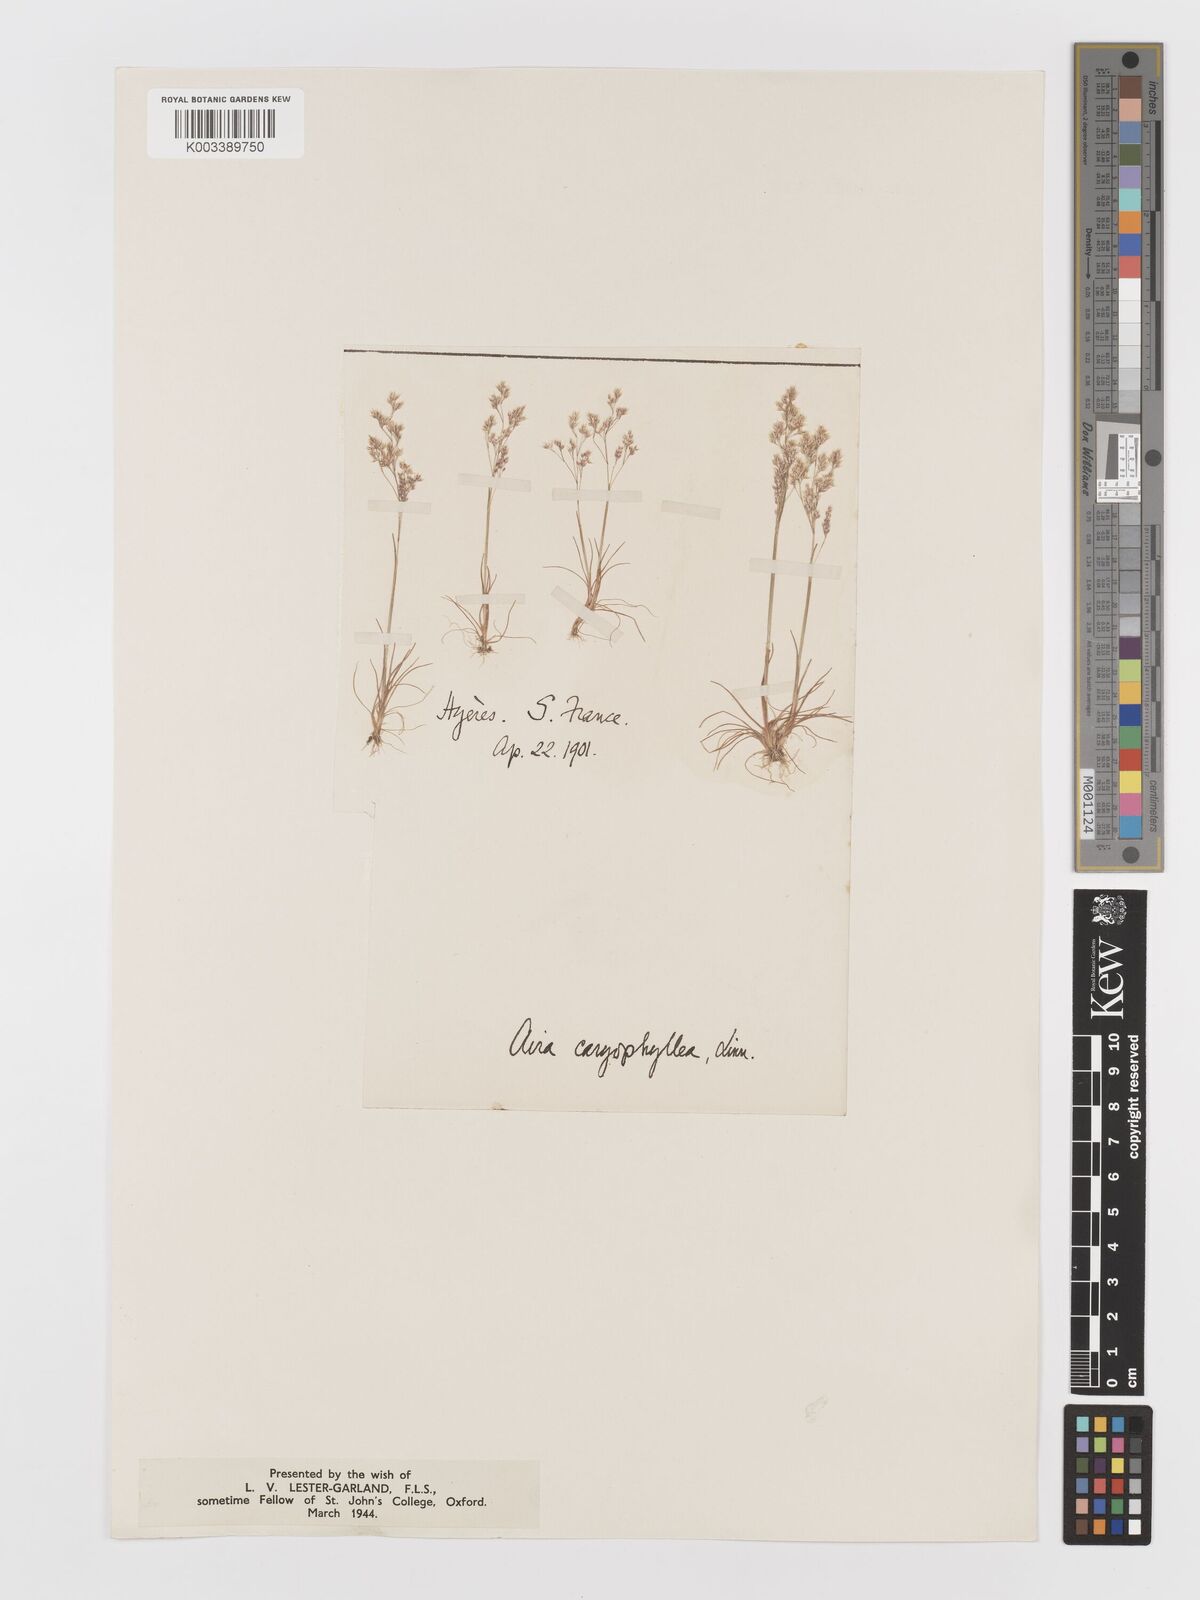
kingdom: Plantae
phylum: Tracheophyta
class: Liliopsida
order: Poales
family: Poaceae
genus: Aira
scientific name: Aira cupaniana
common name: Silver hairgrass
